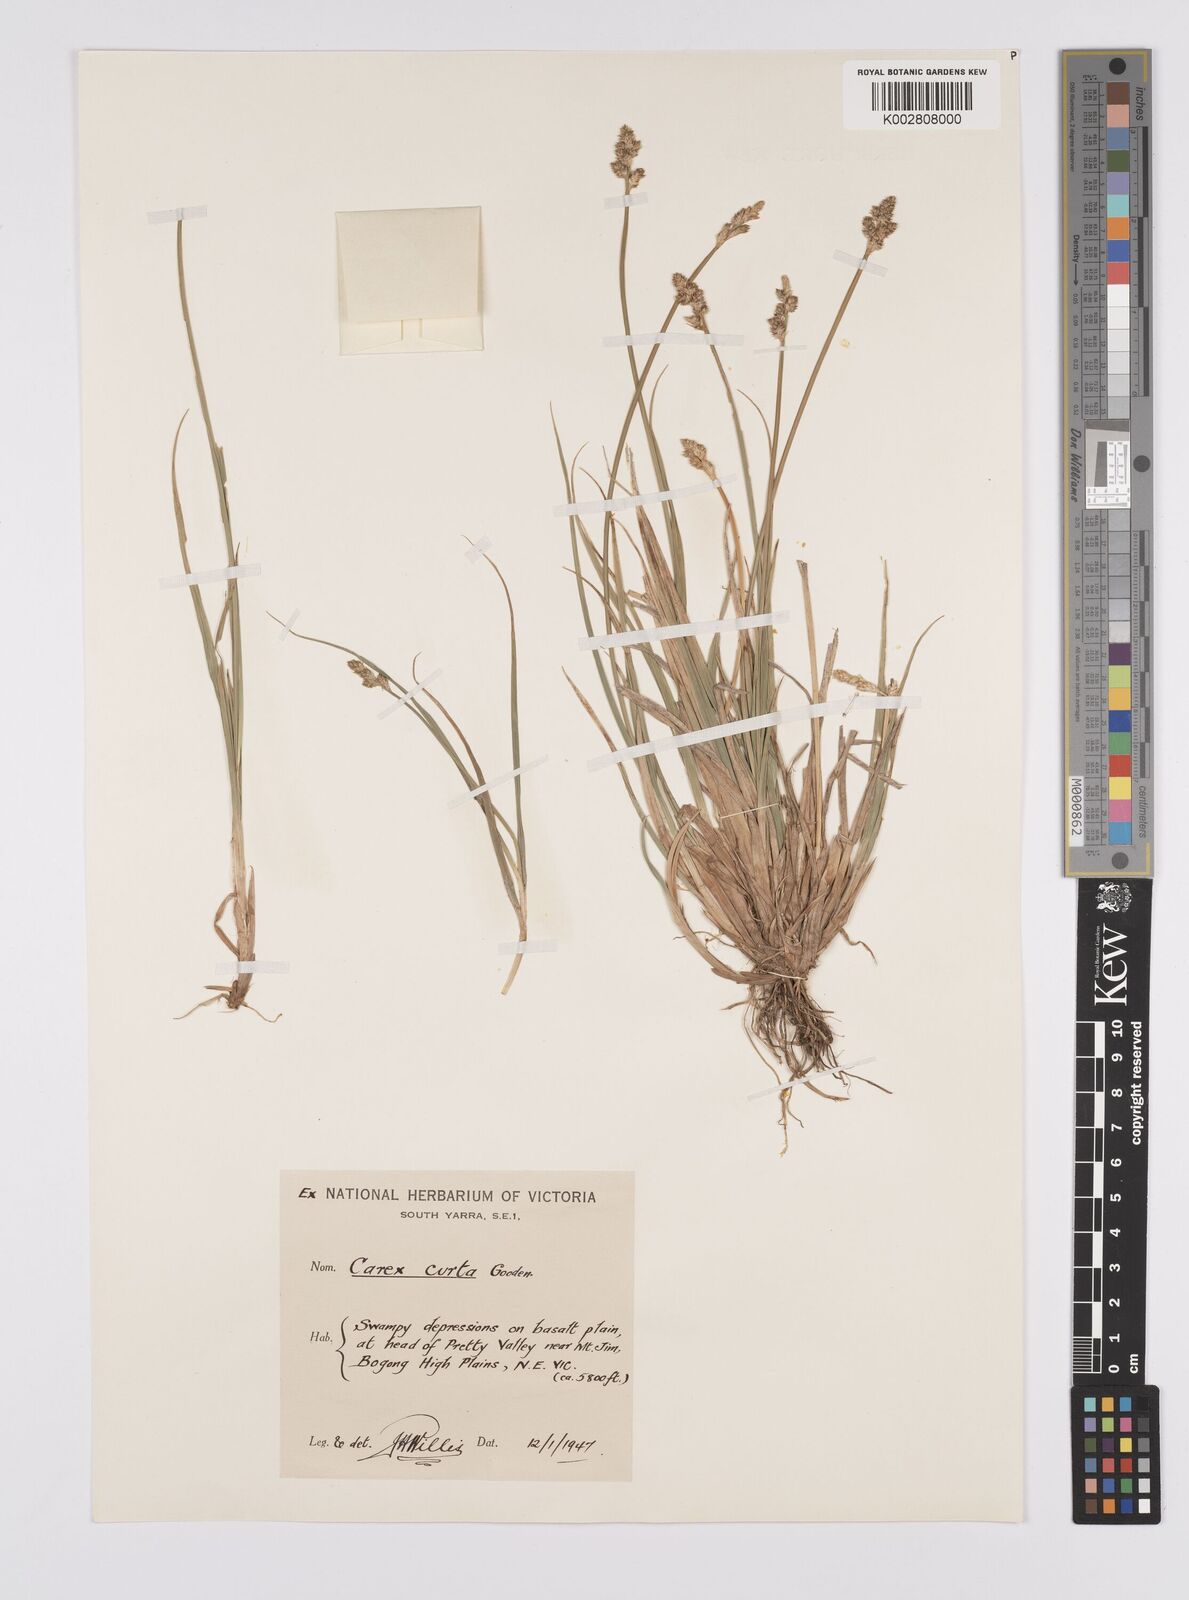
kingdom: Plantae
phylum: Tracheophyta
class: Liliopsida
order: Poales
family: Cyperaceae
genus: Carex
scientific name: Carex curta
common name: White sedge
